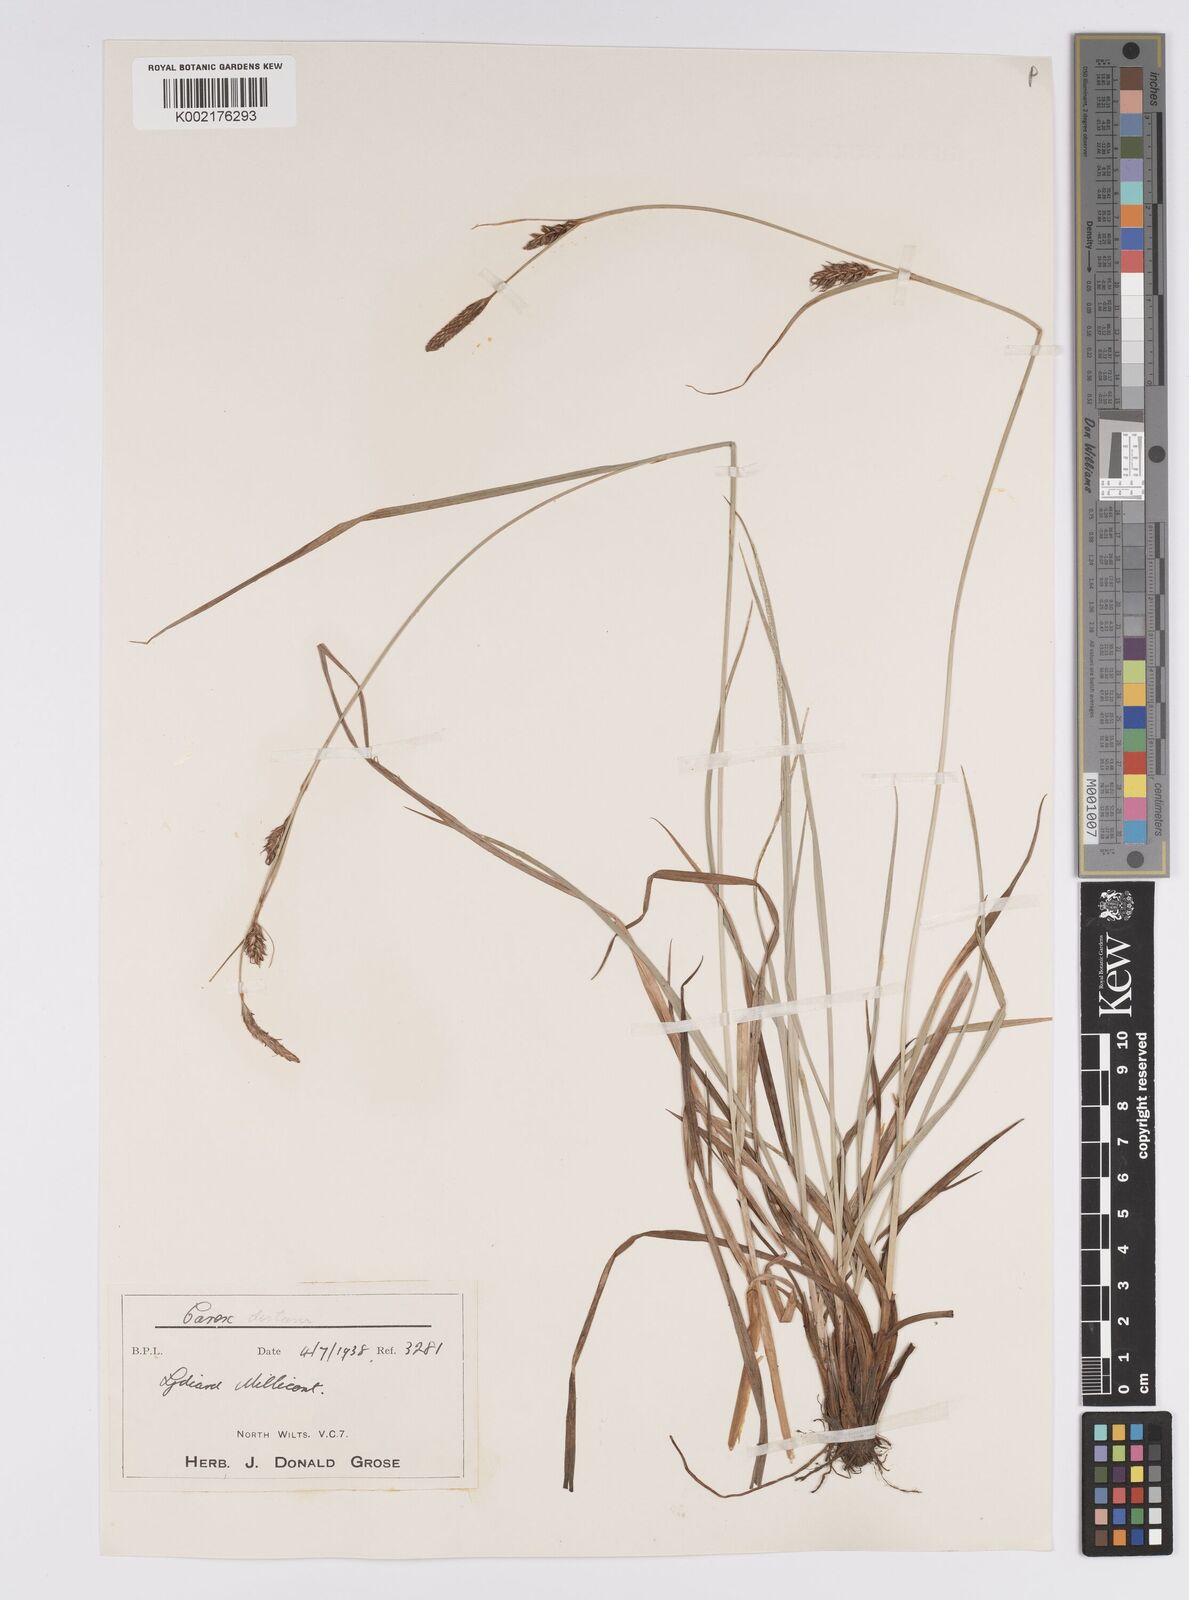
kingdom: Plantae
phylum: Tracheophyta
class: Liliopsida
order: Poales
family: Cyperaceae
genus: Carex
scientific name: Carex distans
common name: Distant sedge
